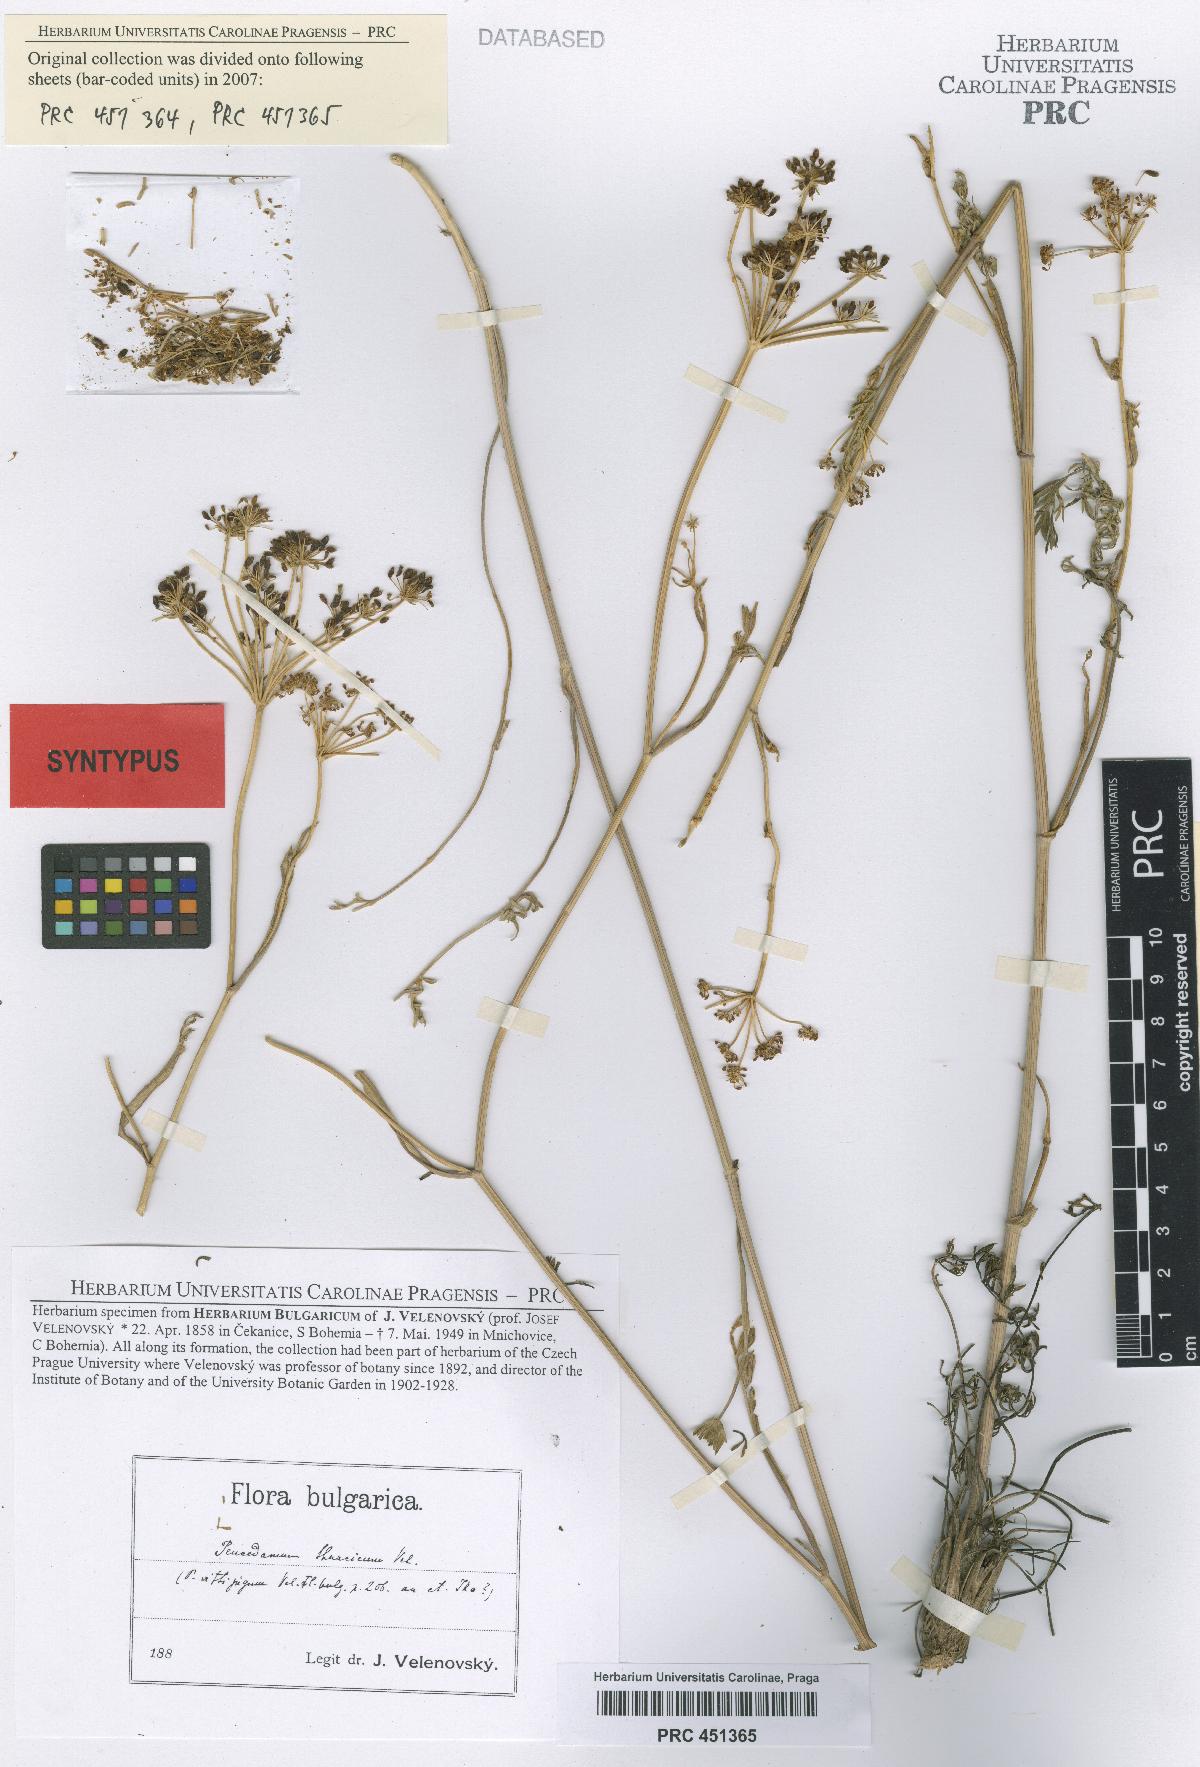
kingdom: Plantae
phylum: Tracheophyta
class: Magnoliopsida
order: Apiales
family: Apiaceae
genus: Dichoropetalum
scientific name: Dichoropetalum vittijugum
